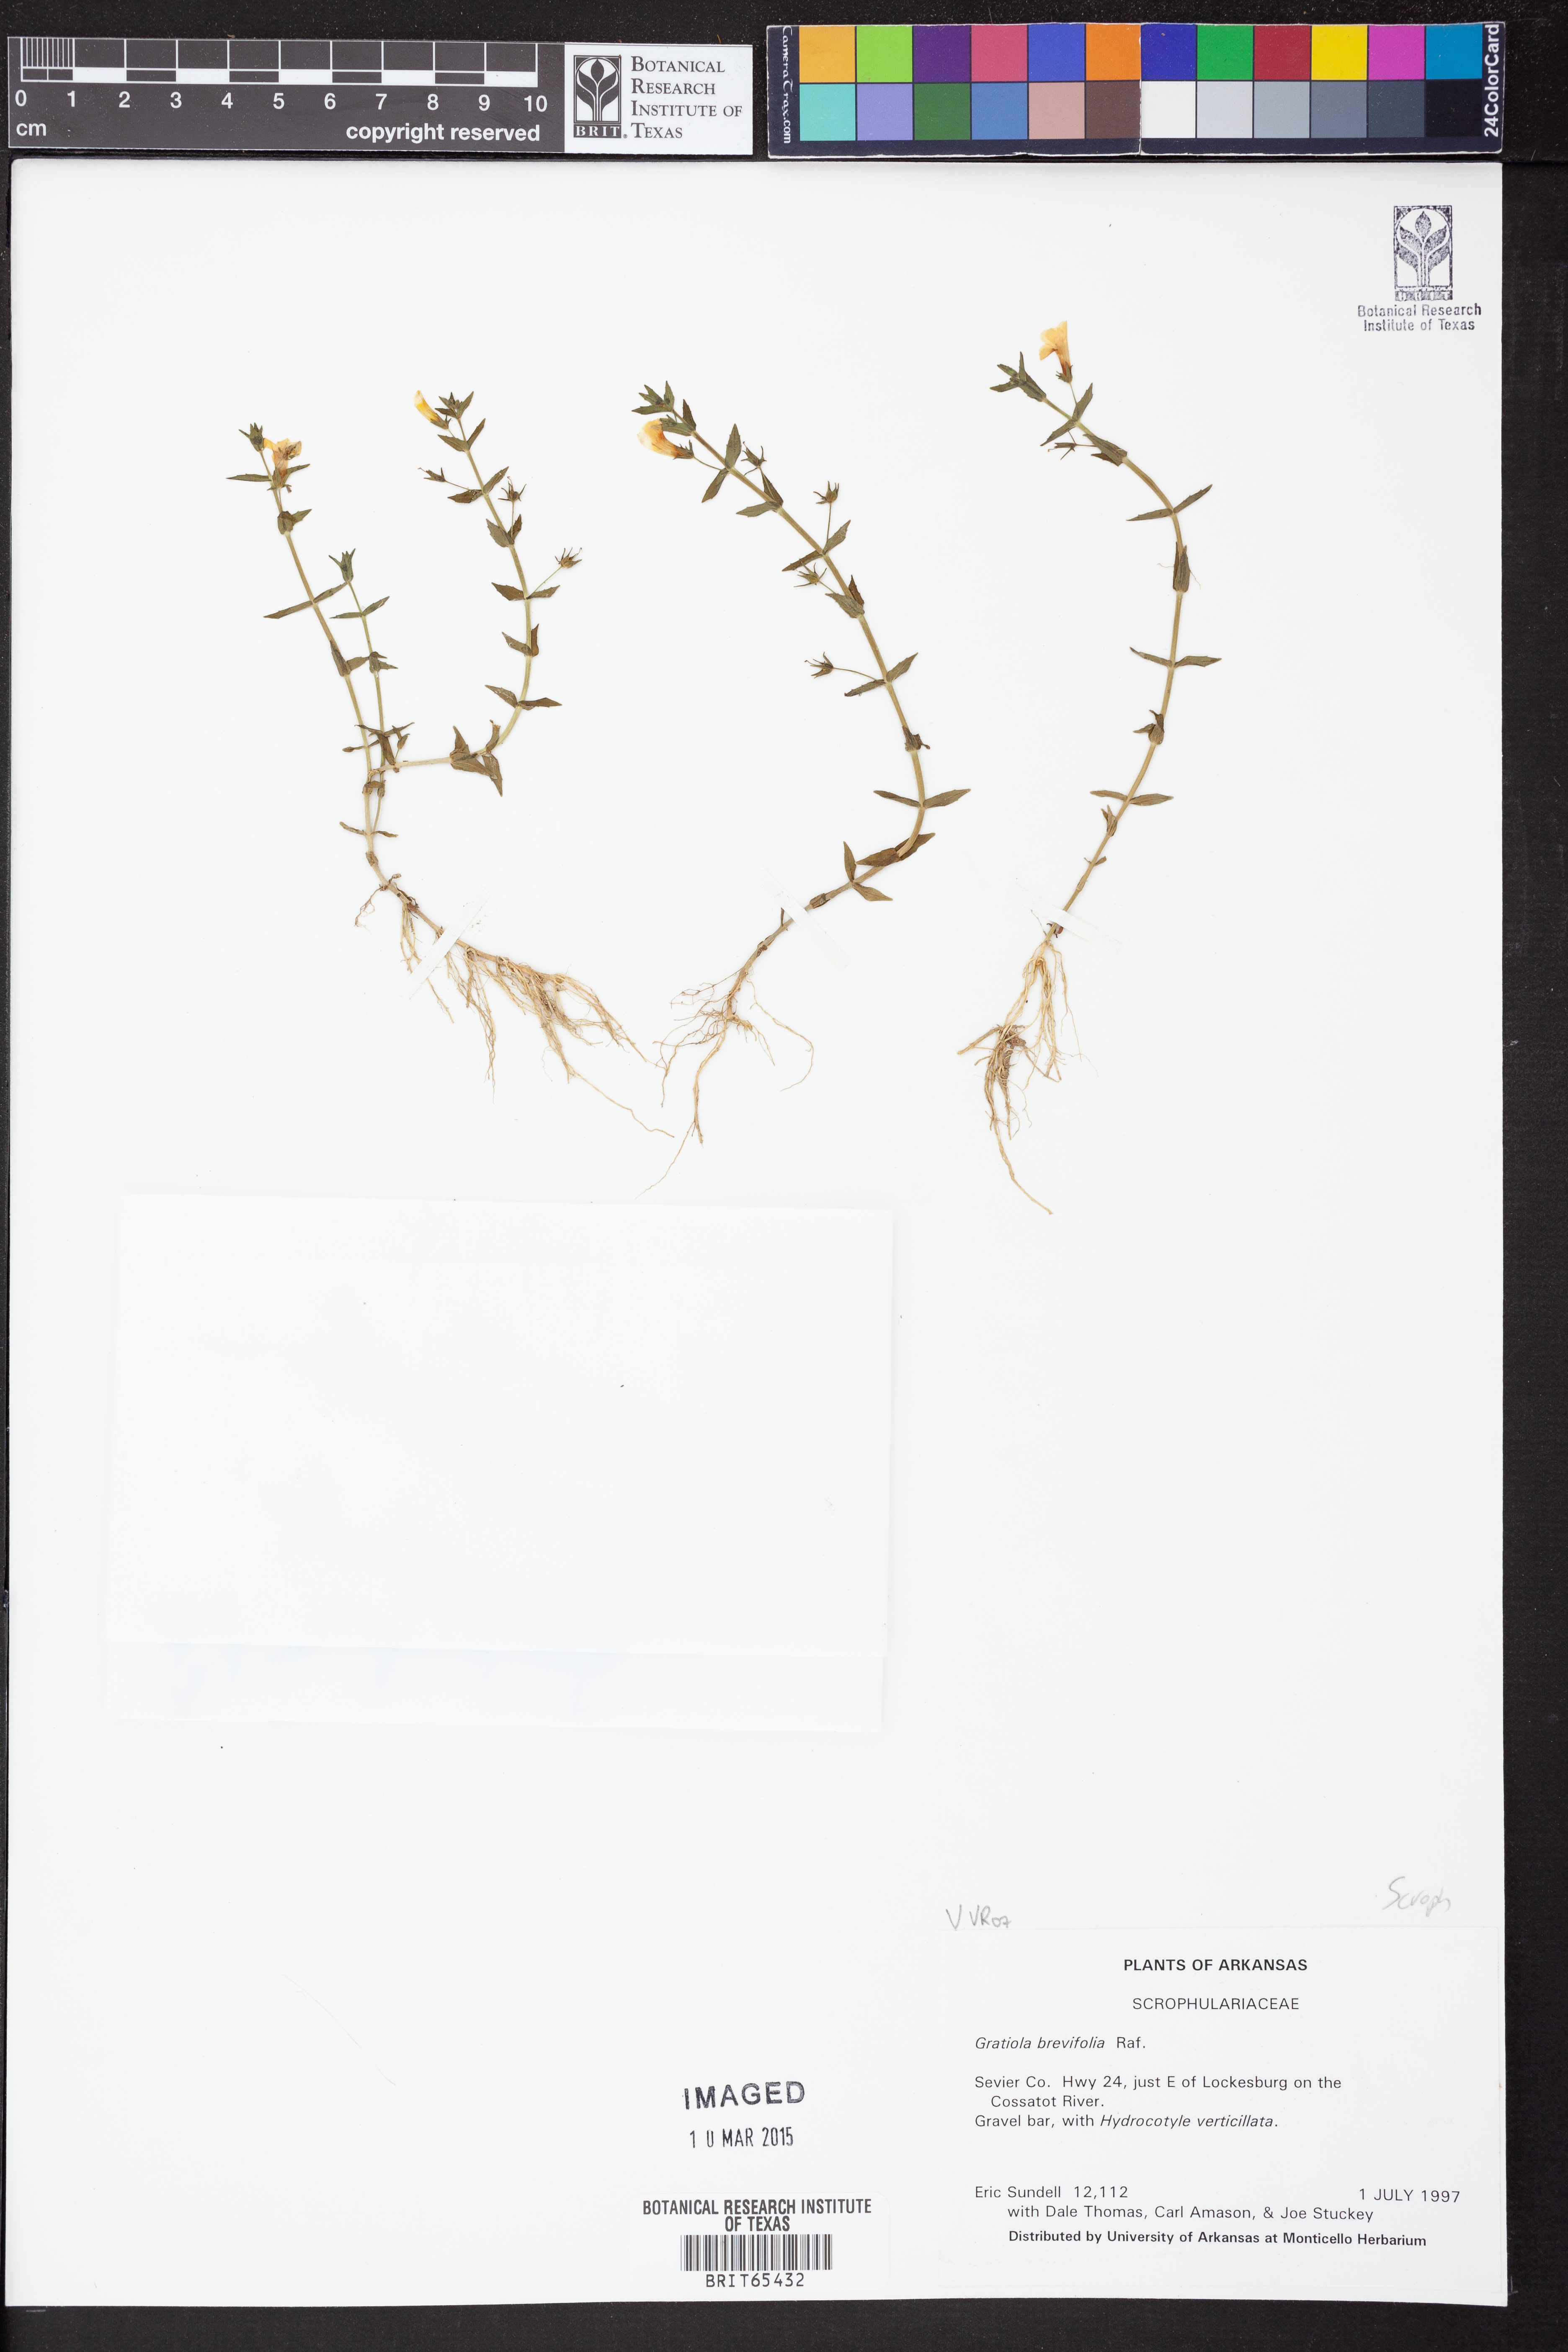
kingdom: Plantae
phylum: Tracheophyta
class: Magnoliopsida
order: Lamiales
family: Plantaginaceae
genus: Gratiola
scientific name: Gratiola brevifolia
